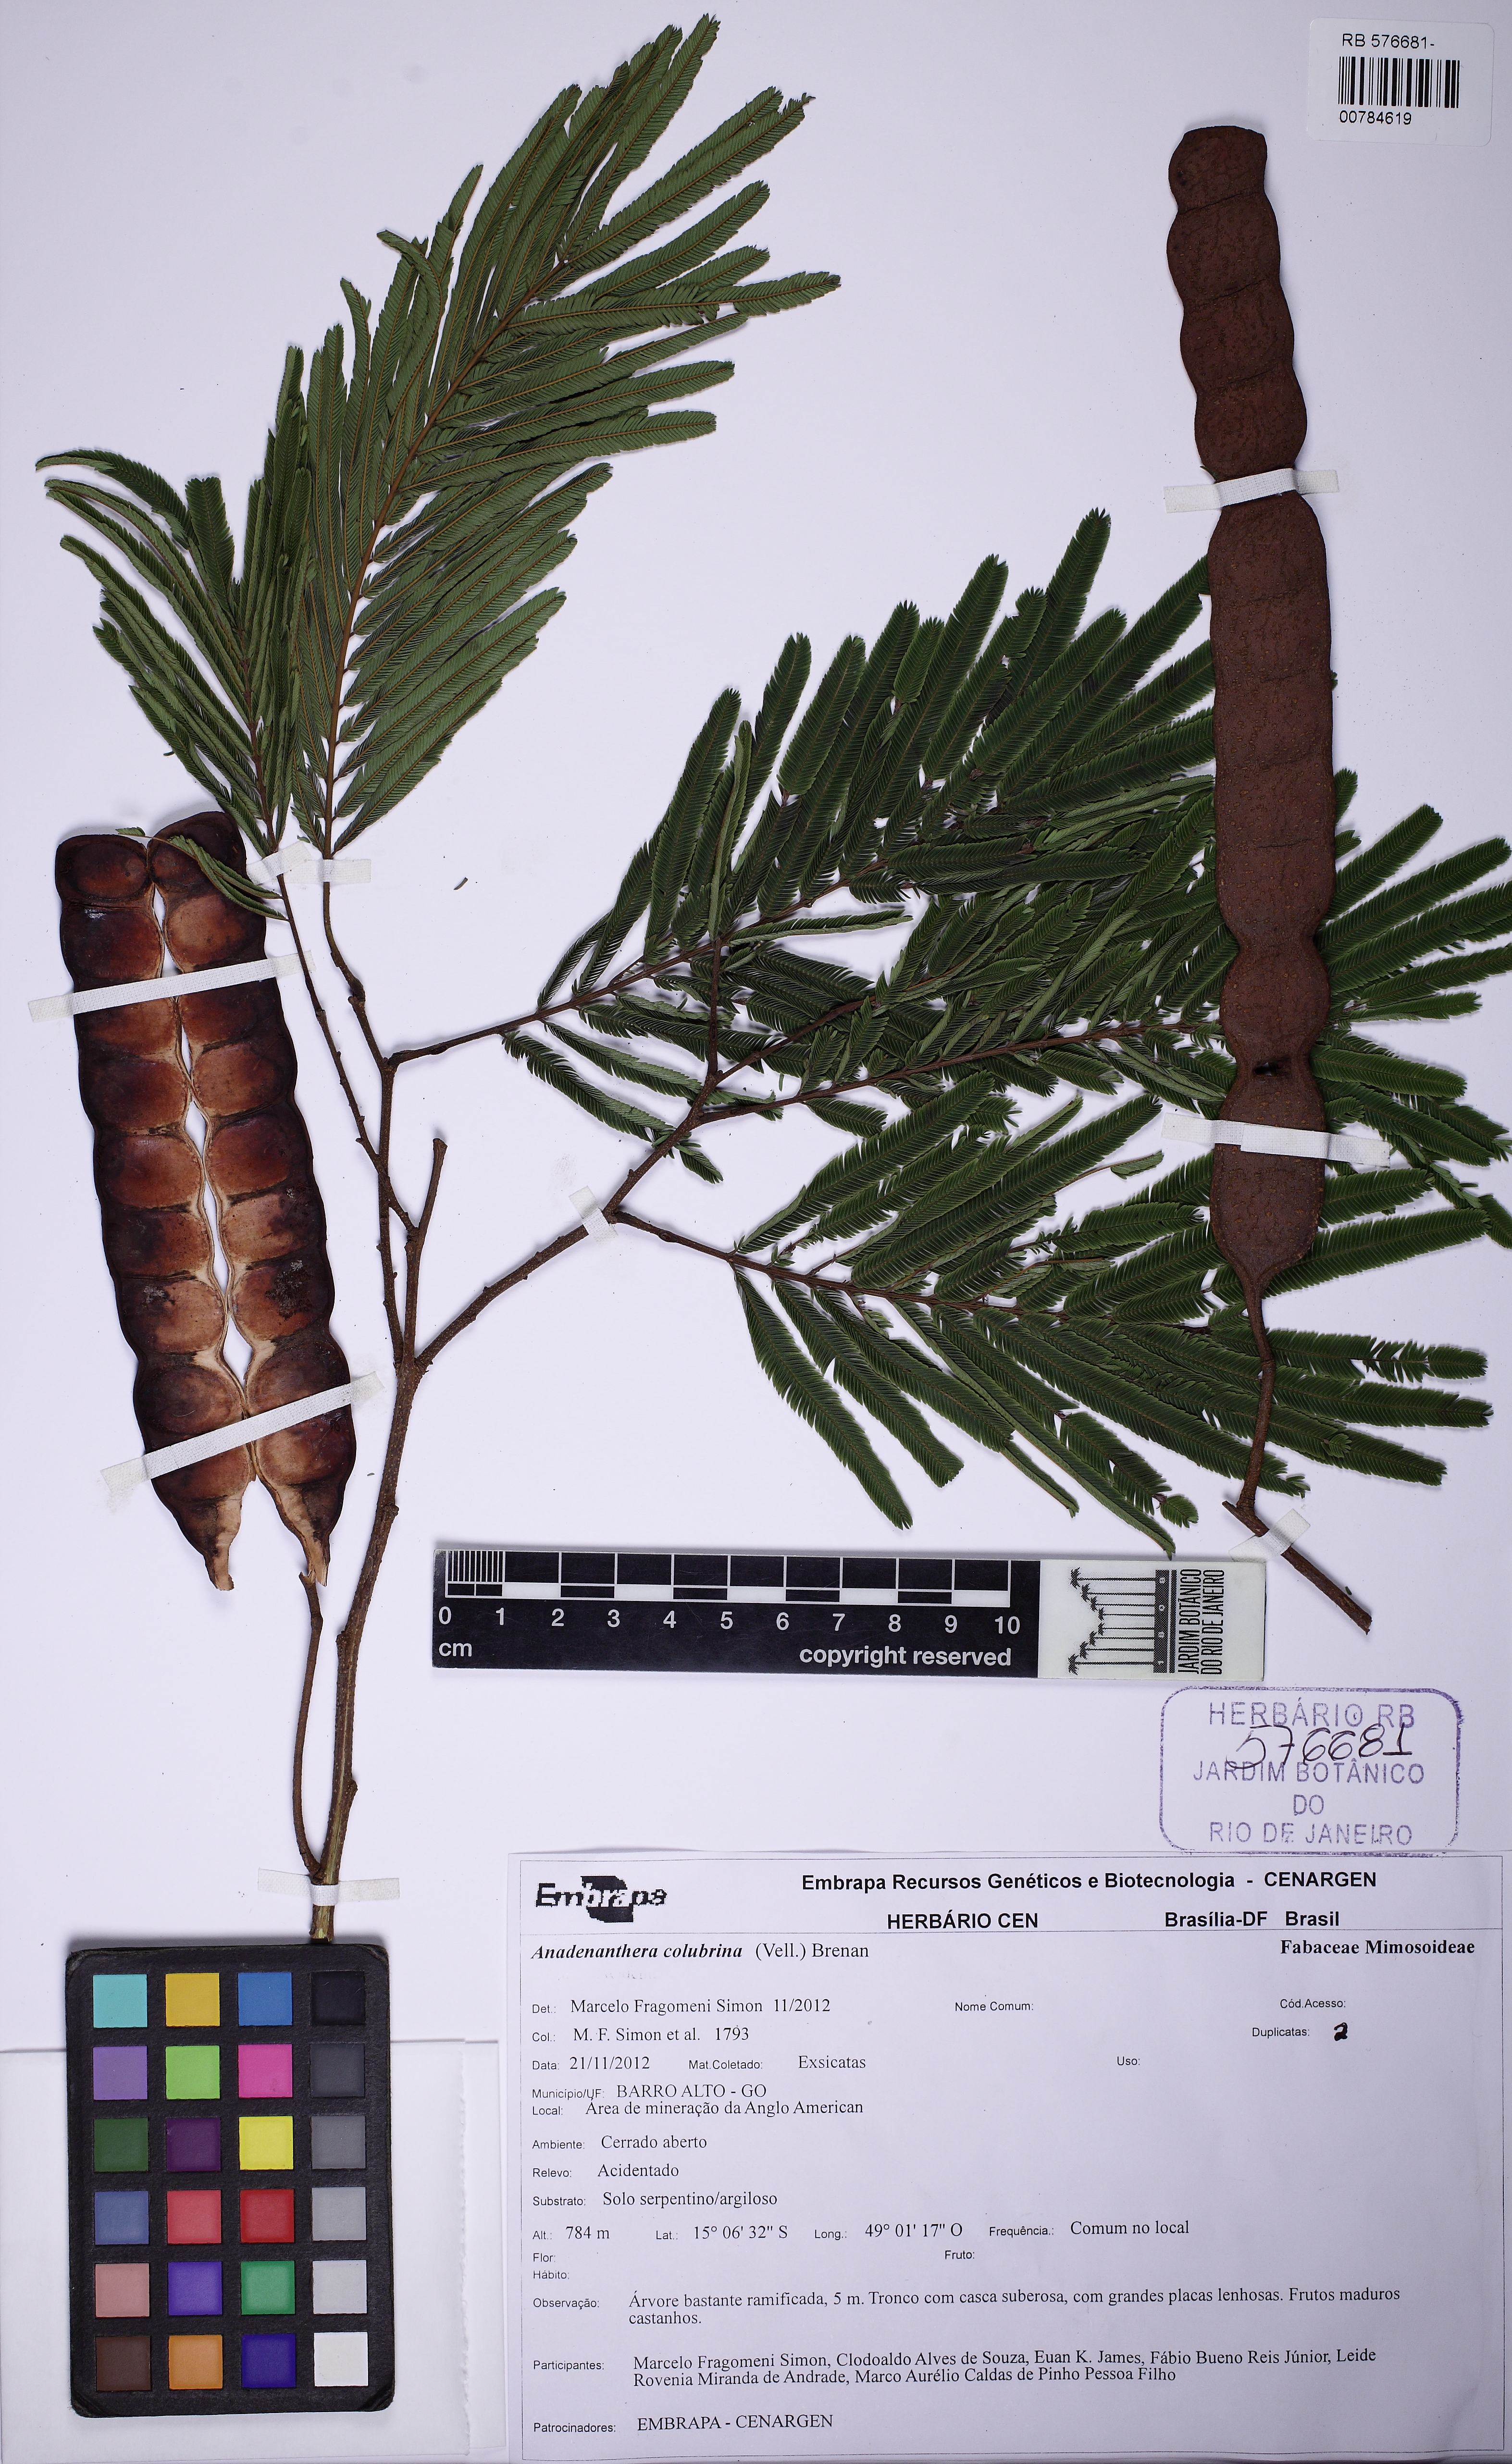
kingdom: Plantae
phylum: Tracheophyta
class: Magnoliopsida
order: Fabales
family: Fabaceae
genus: Anadenanthera
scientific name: Anadenanthera colubrina
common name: Curupay
